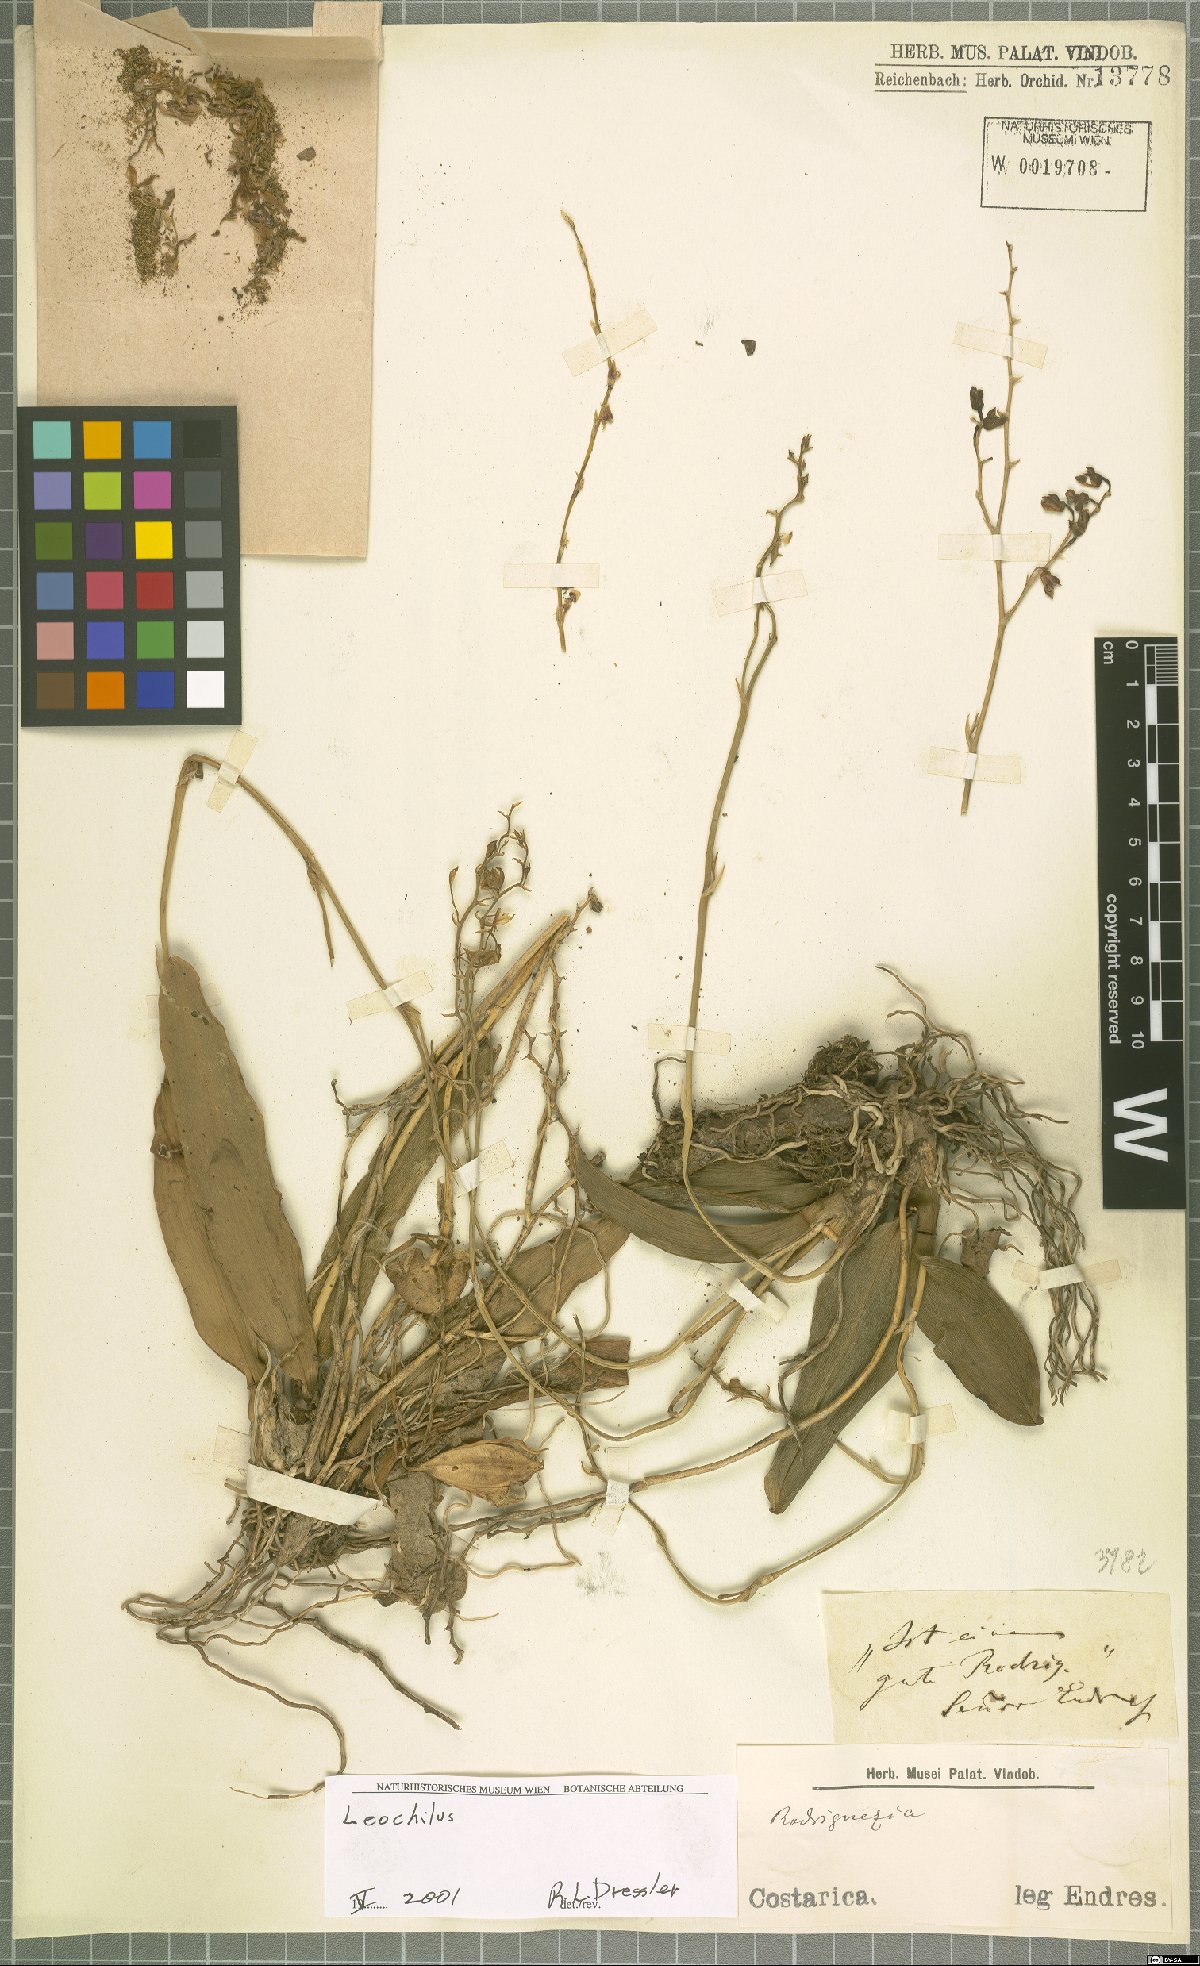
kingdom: Plantae
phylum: Tracheophyta
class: Liliopsida
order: Asparagales
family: Orchidaceae
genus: Leochilus
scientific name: Leochilus
